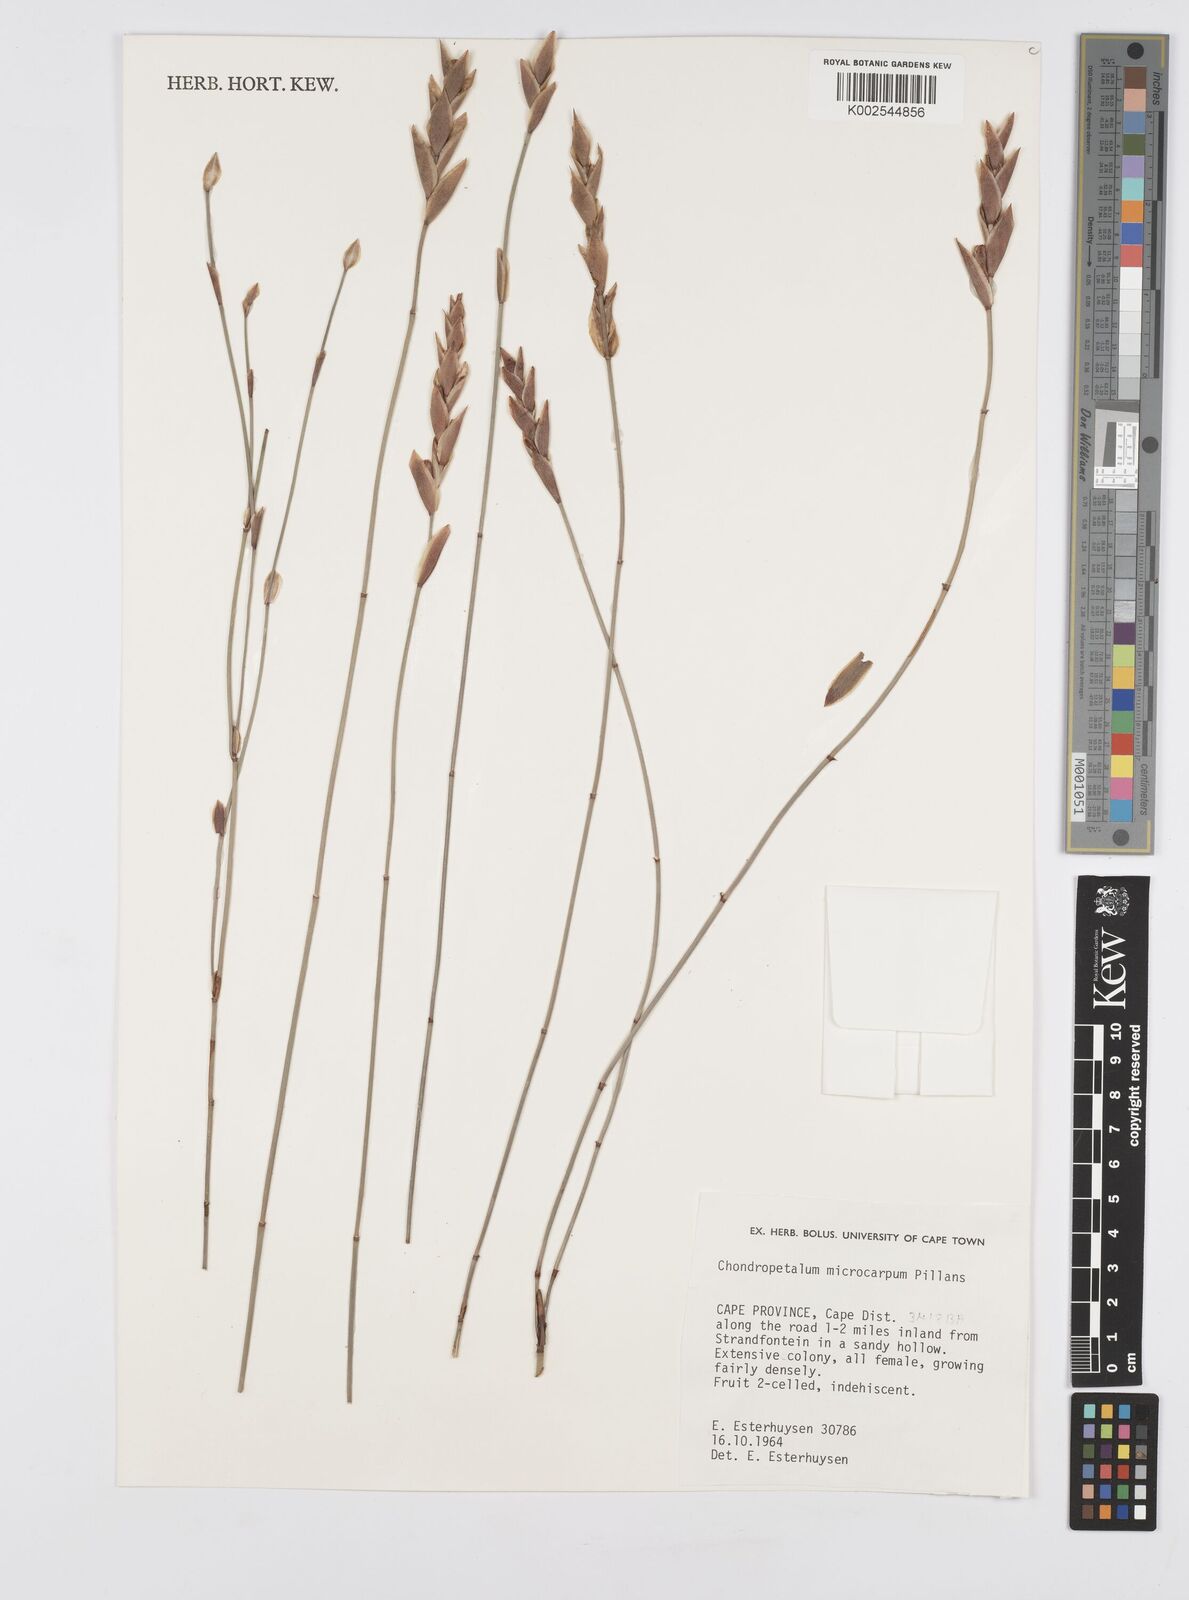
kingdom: Plantae
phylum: Tracheophyta
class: Liliopsida
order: Poales
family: Restionaceae
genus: Elegia
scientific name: Elegia microcarpa
